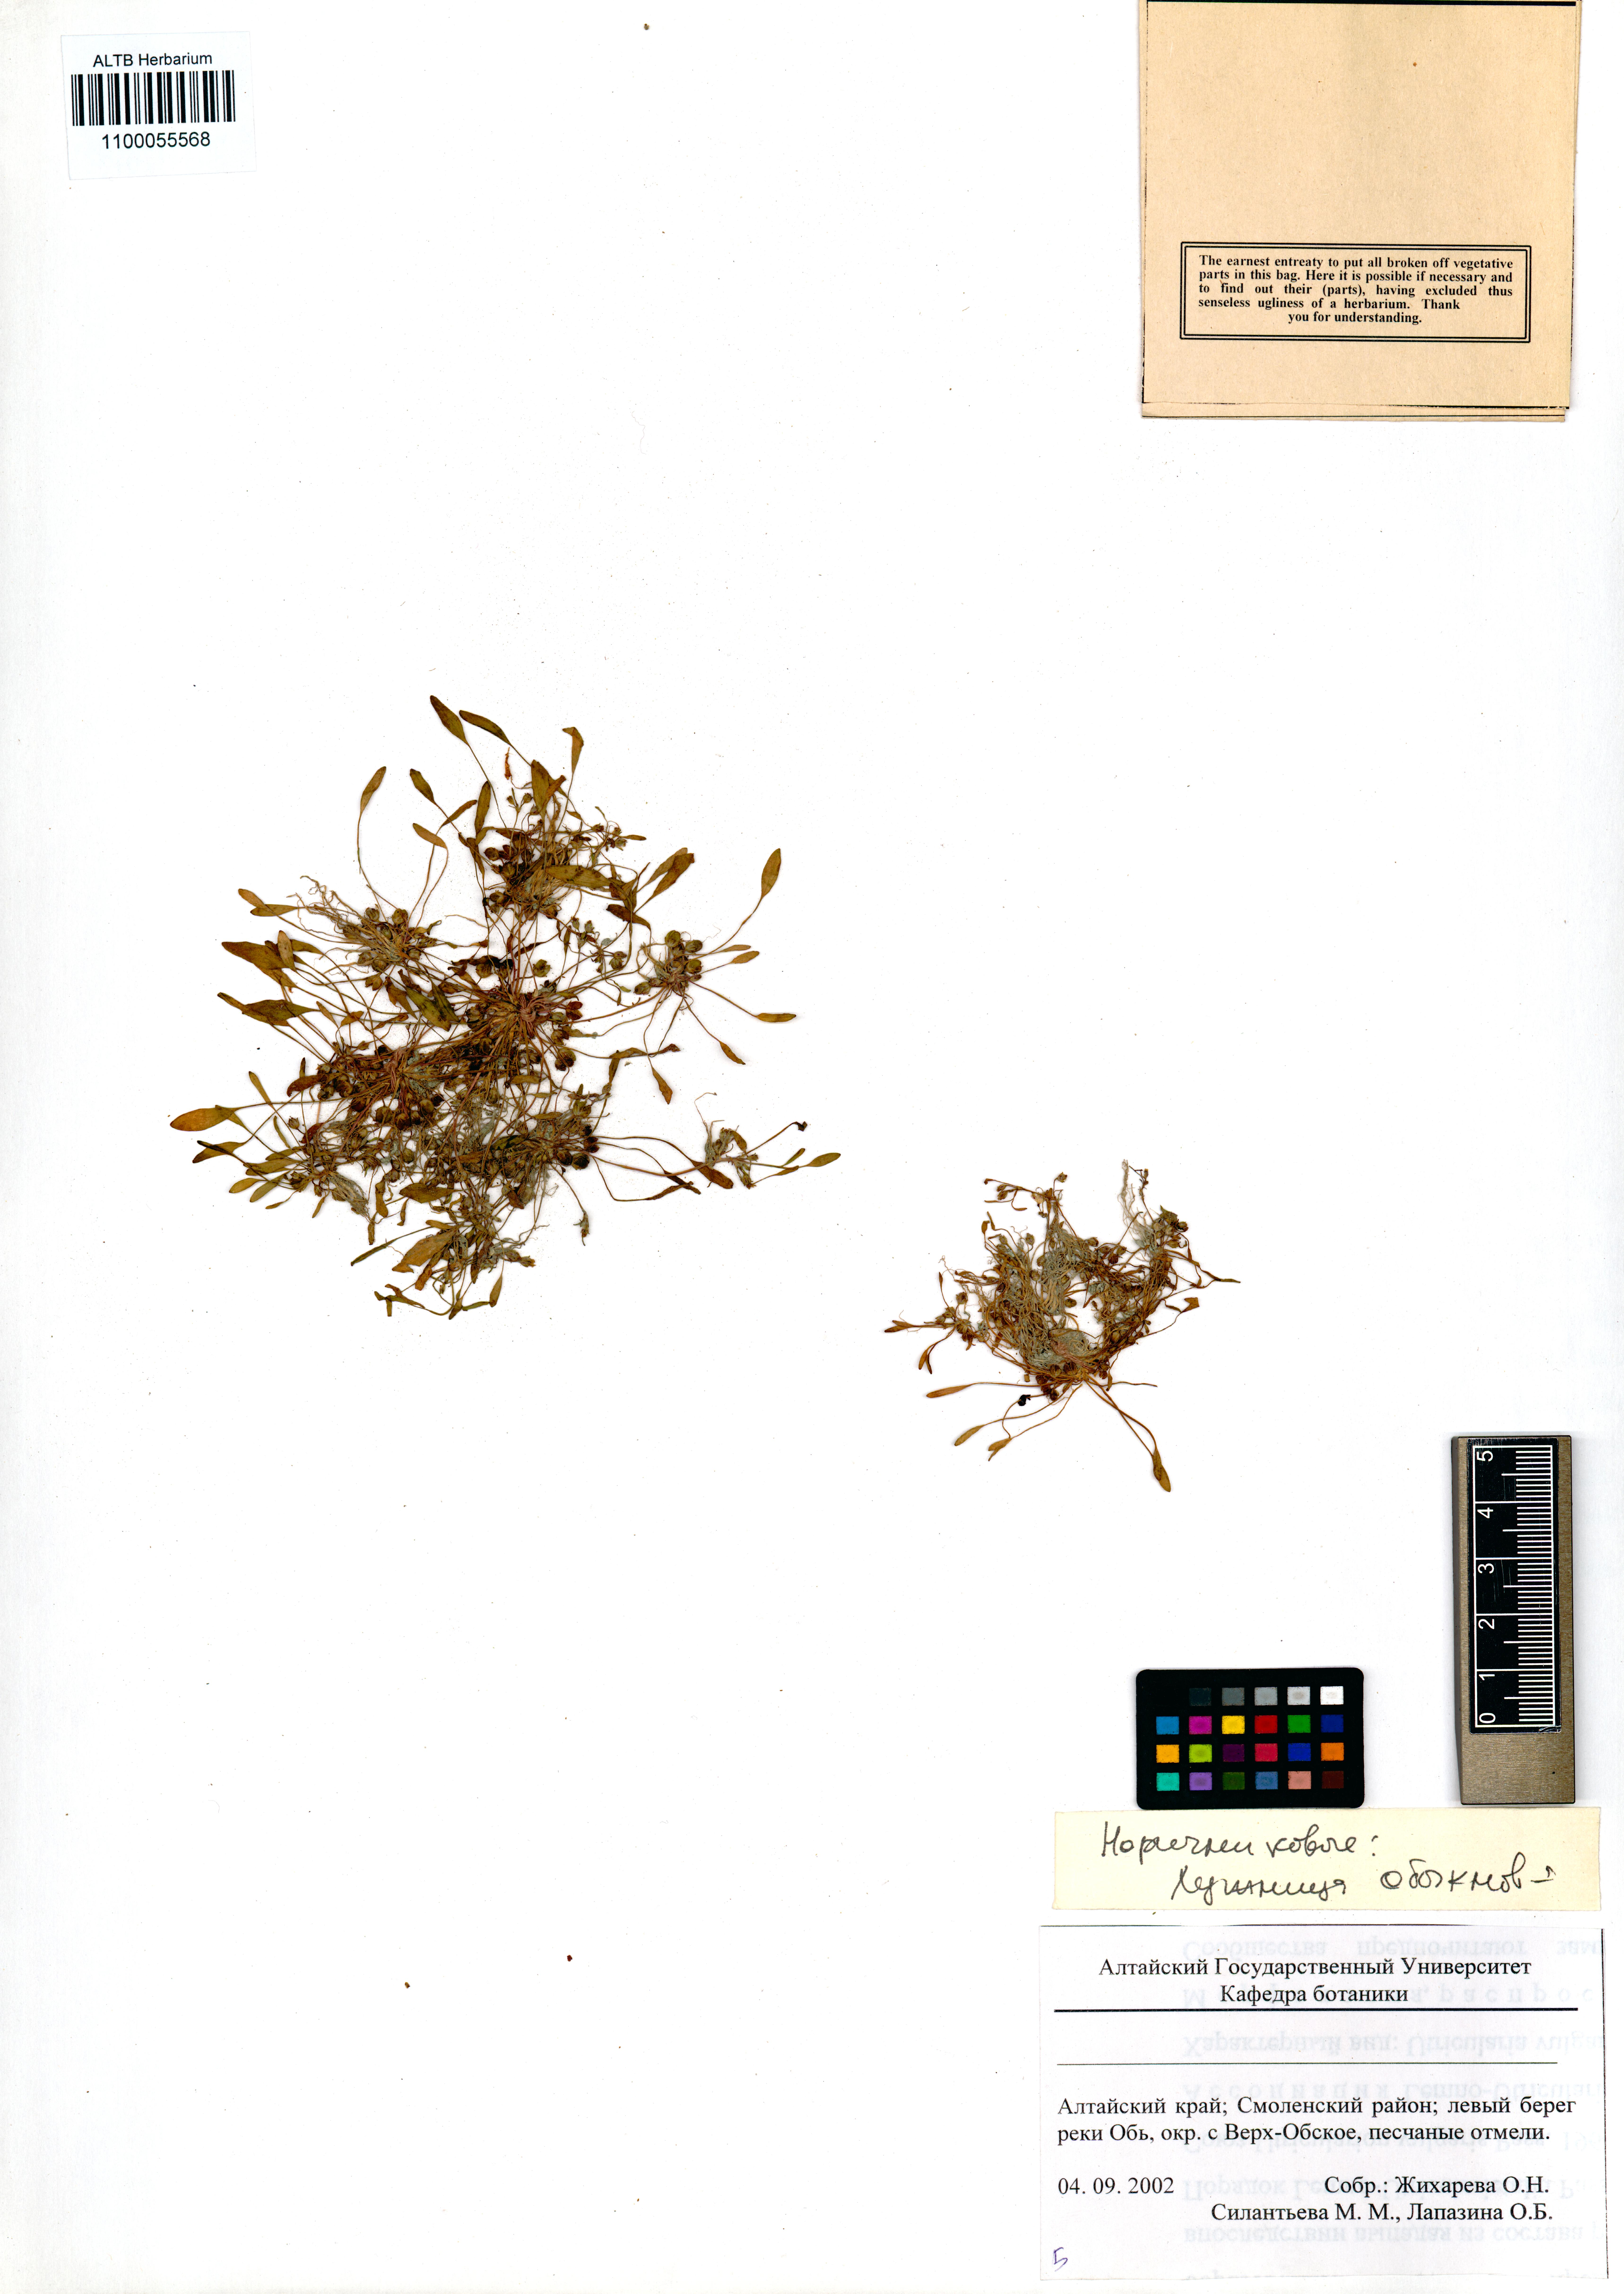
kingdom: Plantae
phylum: Tracheophyta
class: Magnoliopsida
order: Lamiales
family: Scrophulariaceae
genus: Limosella
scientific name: Limosella aquatica
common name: Mudwort
